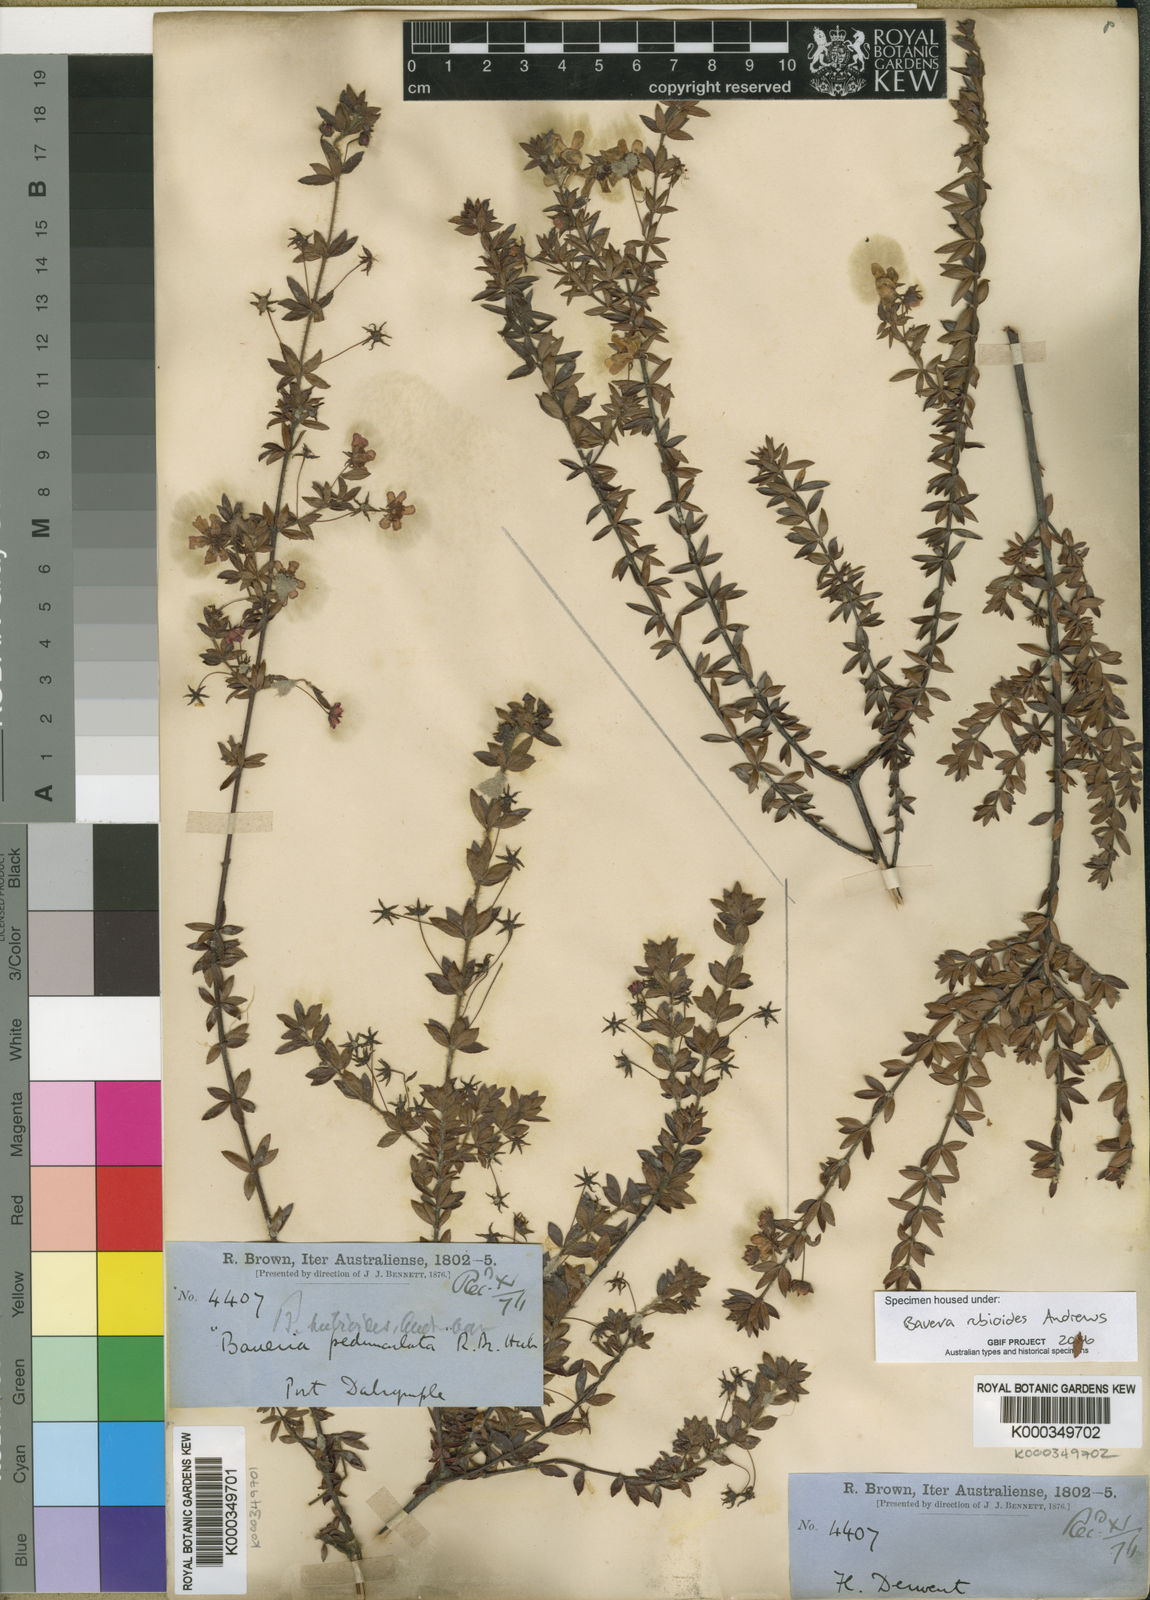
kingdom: Plantae
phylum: Tracheophyta
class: Magnoliopsida
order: Oxalidales
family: Cunoniaceae
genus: Bauera
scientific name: Bauera rubioides
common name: River-rose
